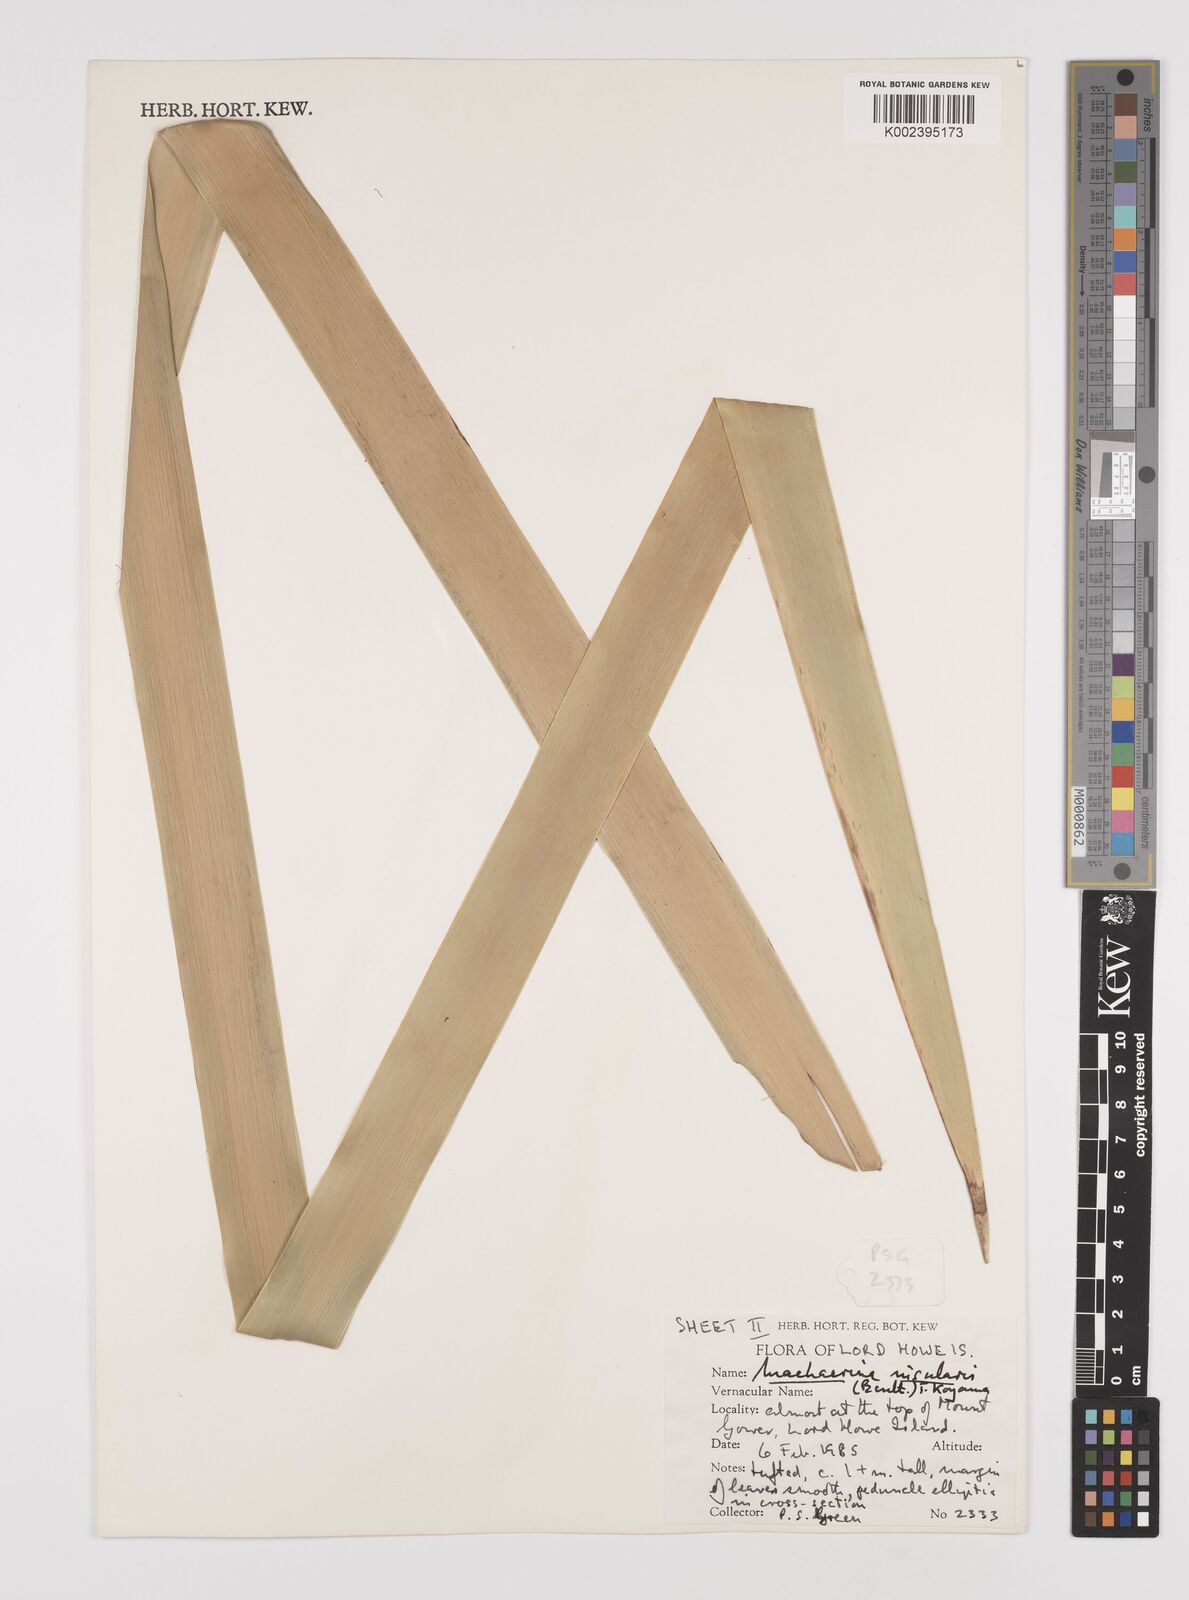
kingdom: Plantae
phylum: Tracheophyta
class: Liliopsida
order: Poales
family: Cyperaceae
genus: Machaerina
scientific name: Machaerina insularis
